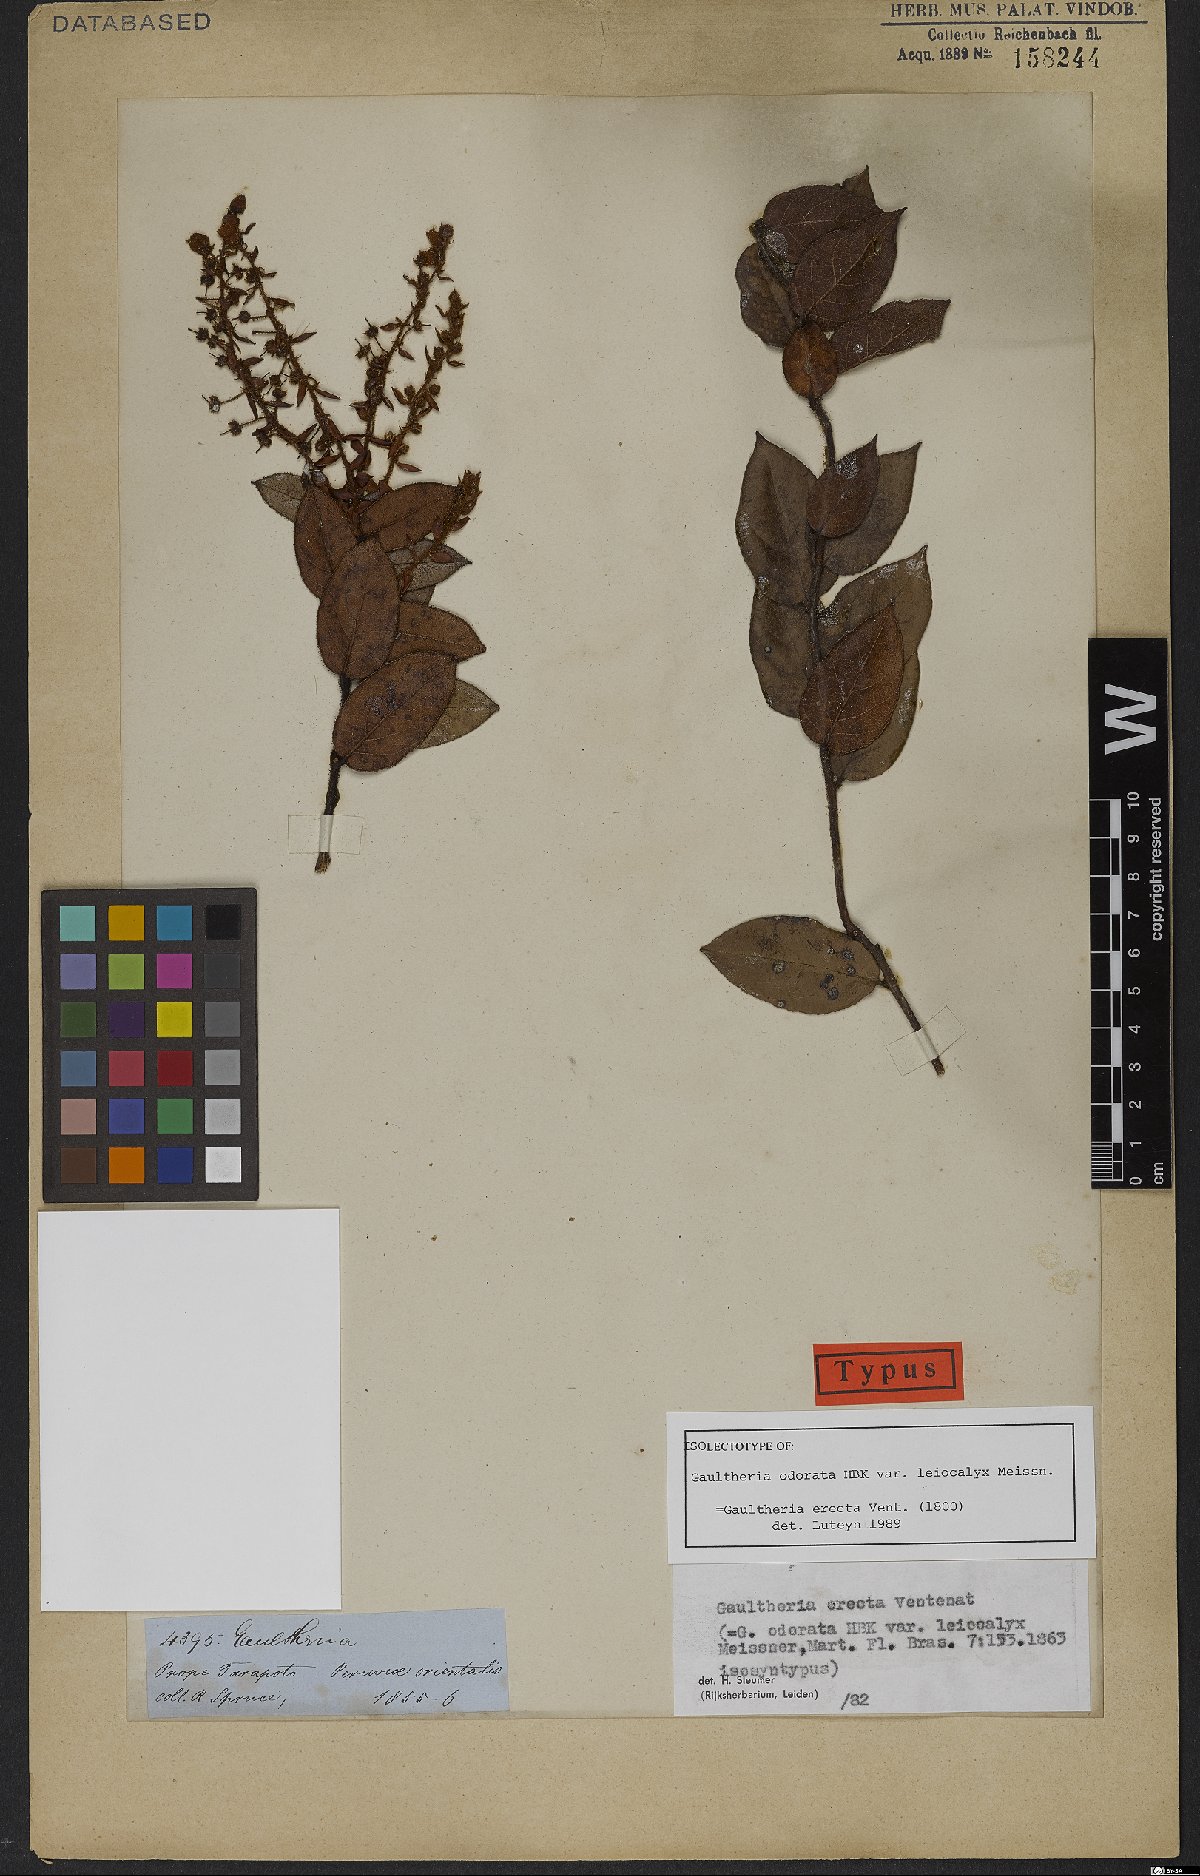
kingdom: Plantae
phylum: Tracheophyta
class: Magnoliopsida
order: Ericales
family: Ericaceae
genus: Gaultheria
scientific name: Gaultheria erecta
